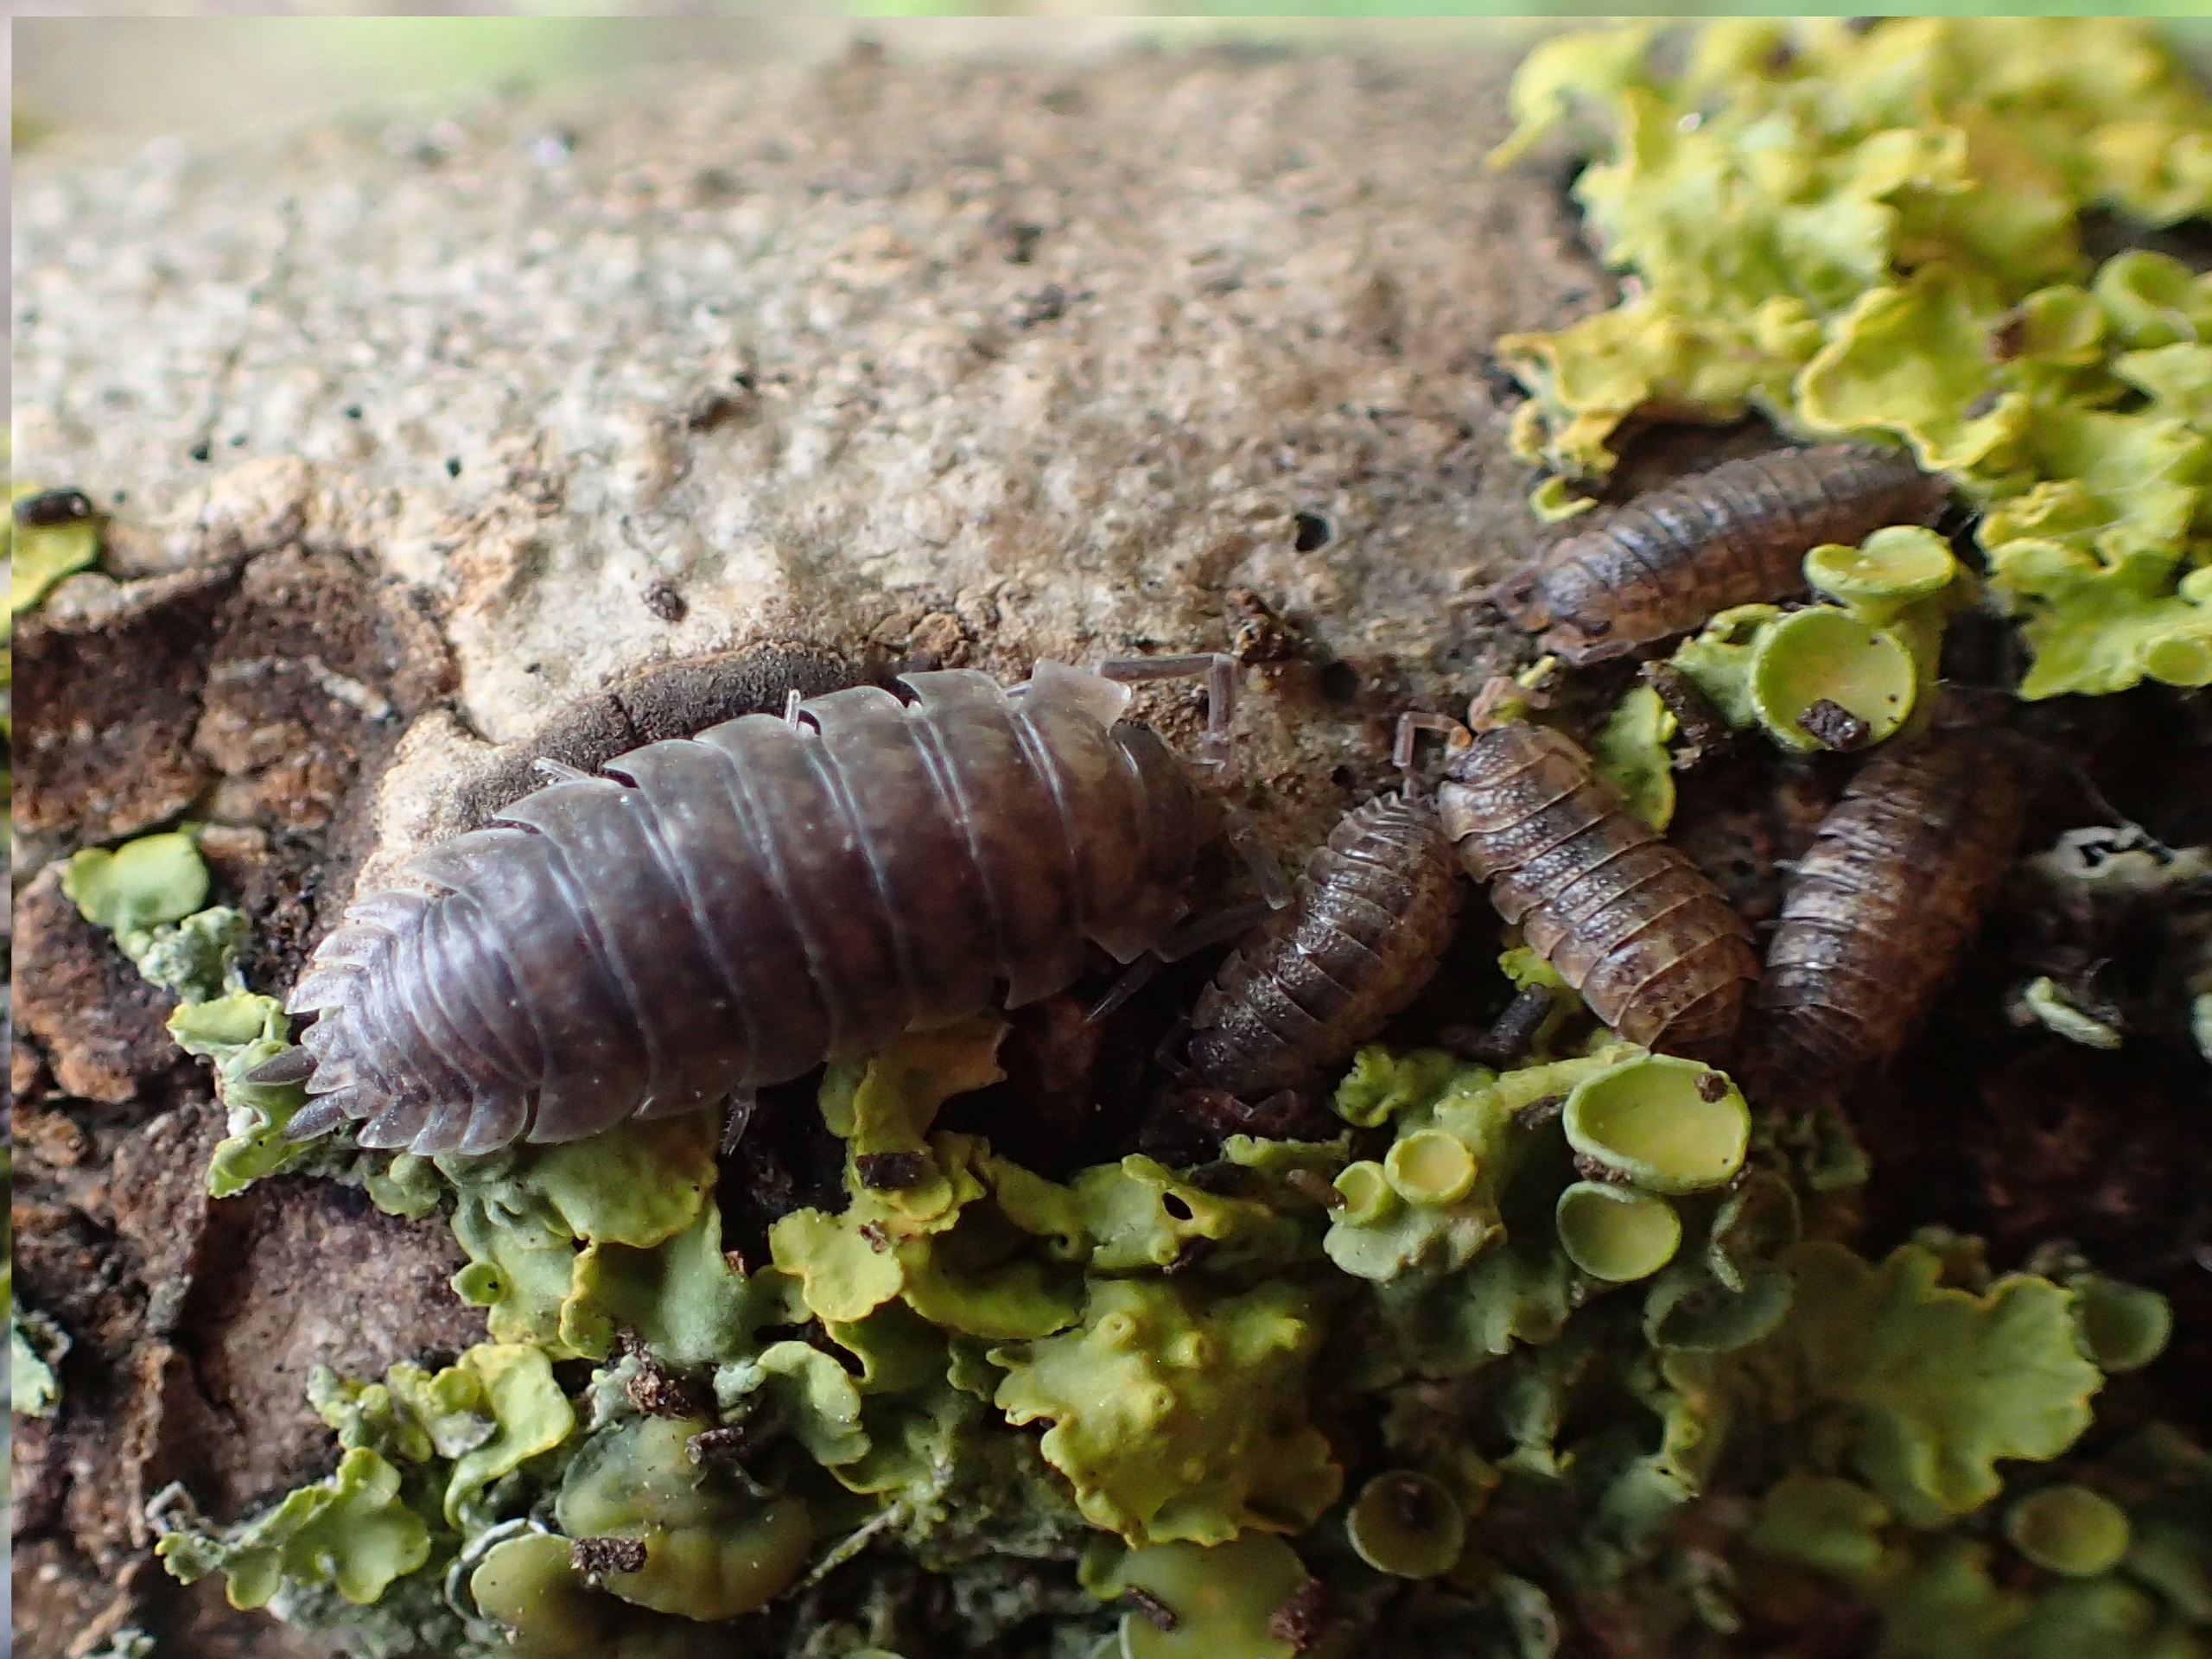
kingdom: Animalia
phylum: Arthropoda
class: Malacostraca
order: Isopoda
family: Porcellionidae
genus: Porcellio
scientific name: Porcellio scaber
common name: Grå bænkebider
